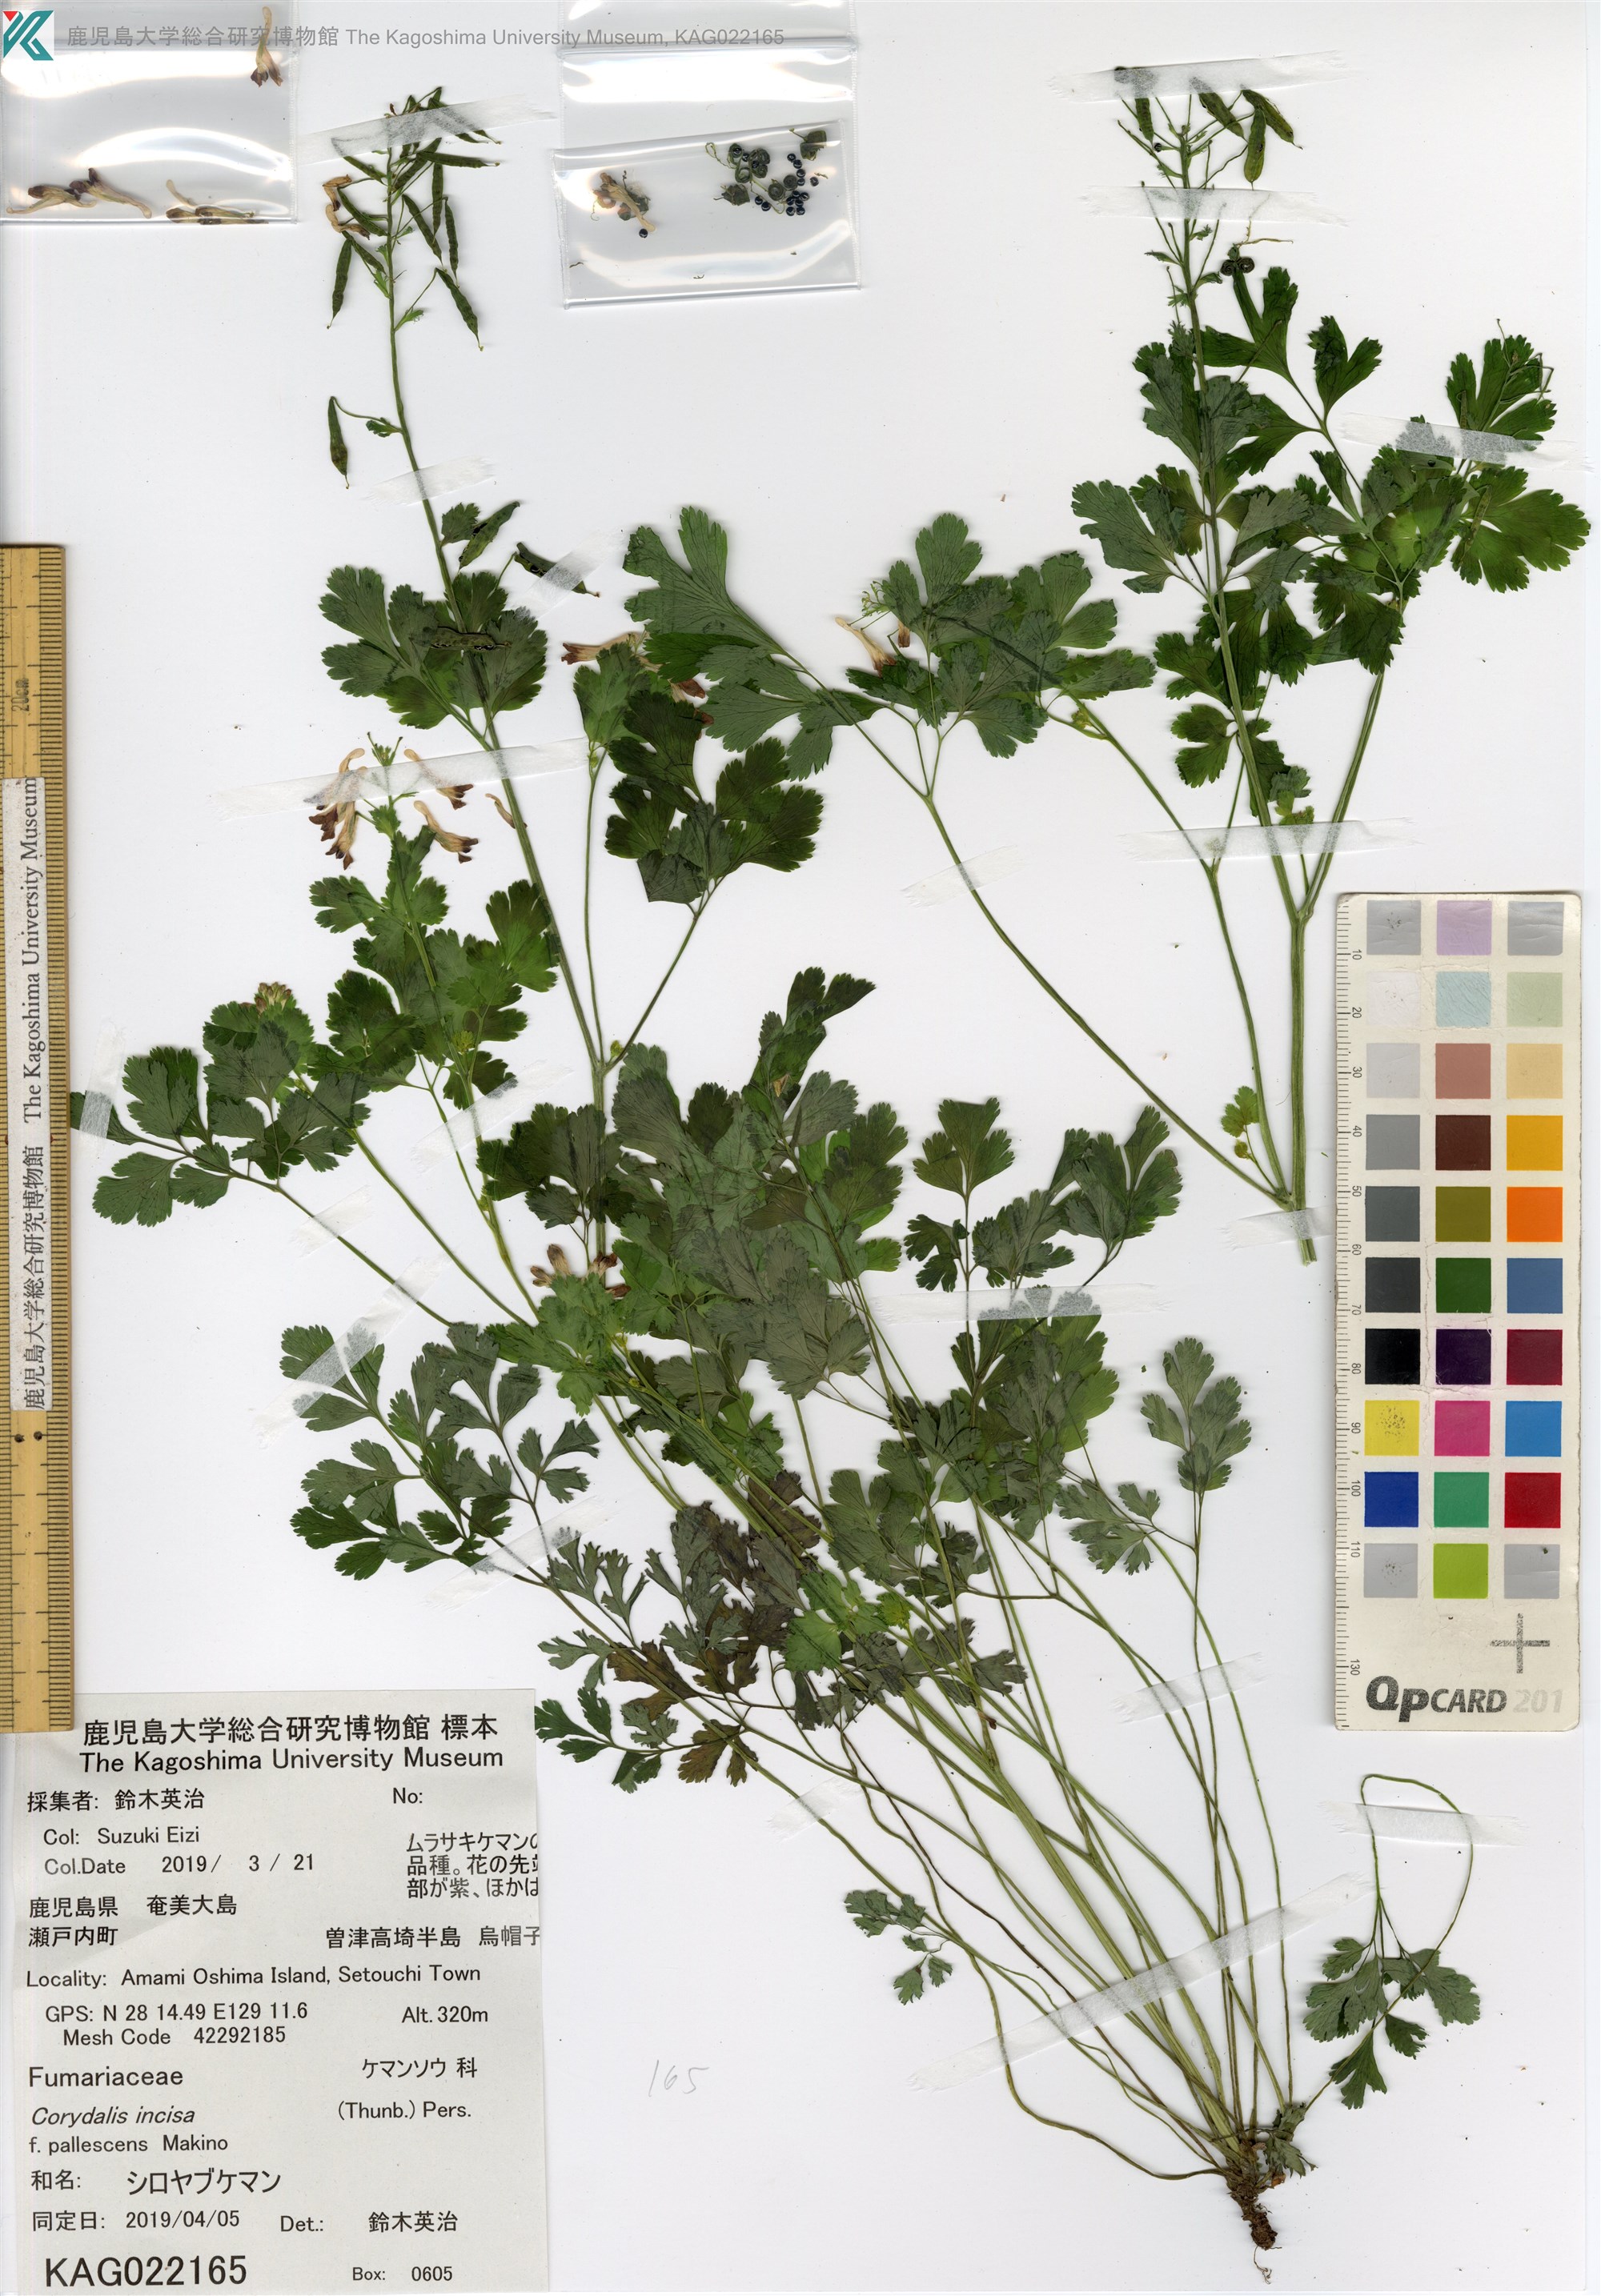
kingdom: Plantae
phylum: Tracheophyta
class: Magnoliopsida
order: Ranunculales
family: Papaveraceae
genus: Corydalis
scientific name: Corydalis incisa
